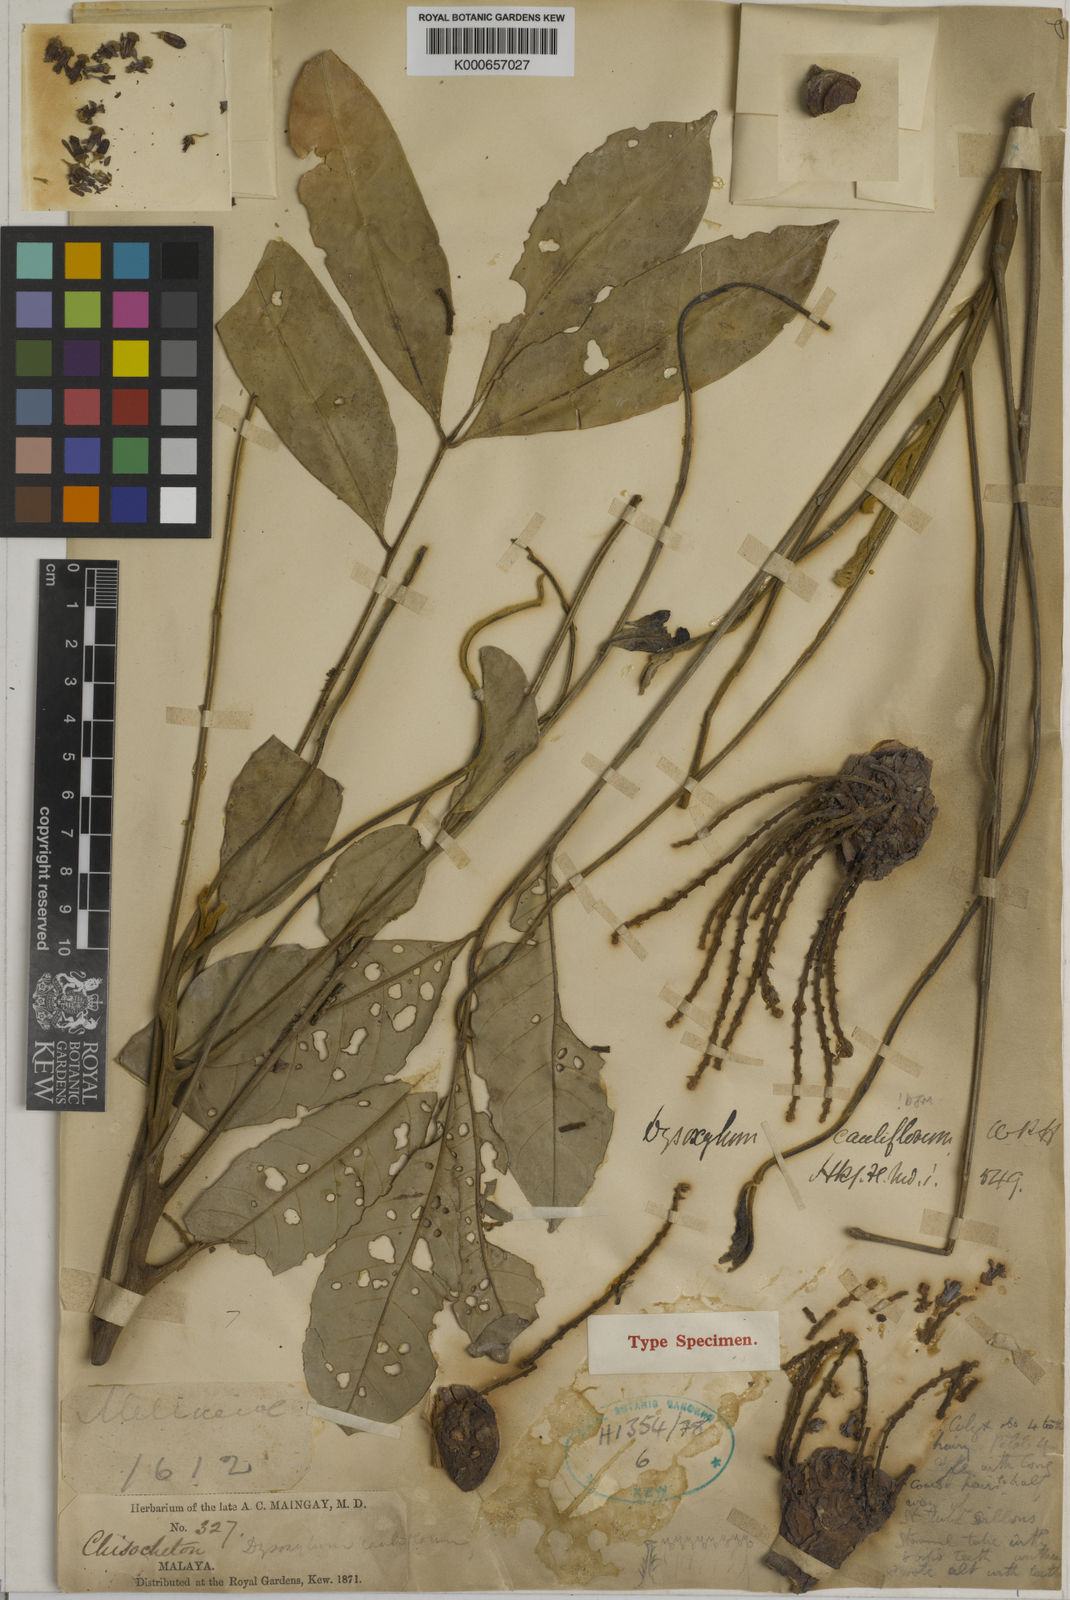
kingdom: Plantae
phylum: Tracheophyta
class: Magnoliopsida
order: Sapindales
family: Meliaceae
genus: Epicharis
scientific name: Epicharis cuneata
